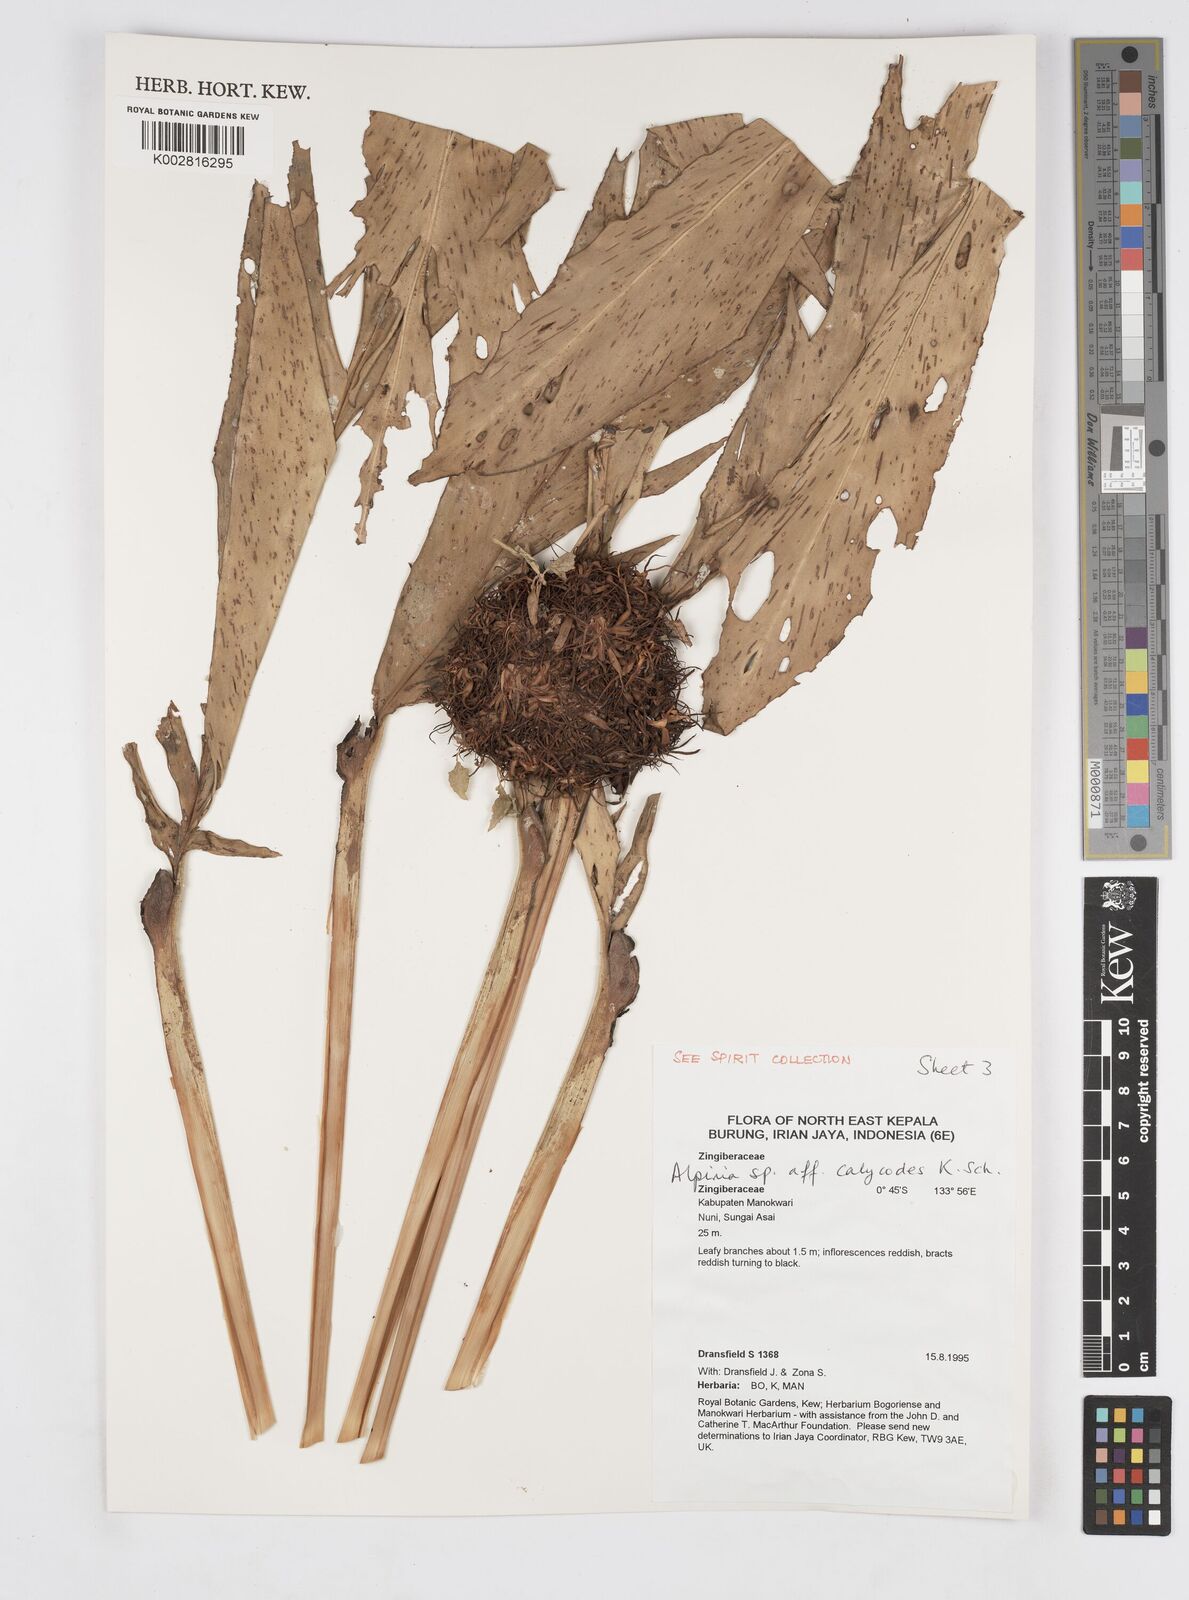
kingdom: Plantae
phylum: Tracheophyta
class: Liliopsida
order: Zingiberales
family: Zingiberaceae
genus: Alpinia
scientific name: Alpinia calycodes
